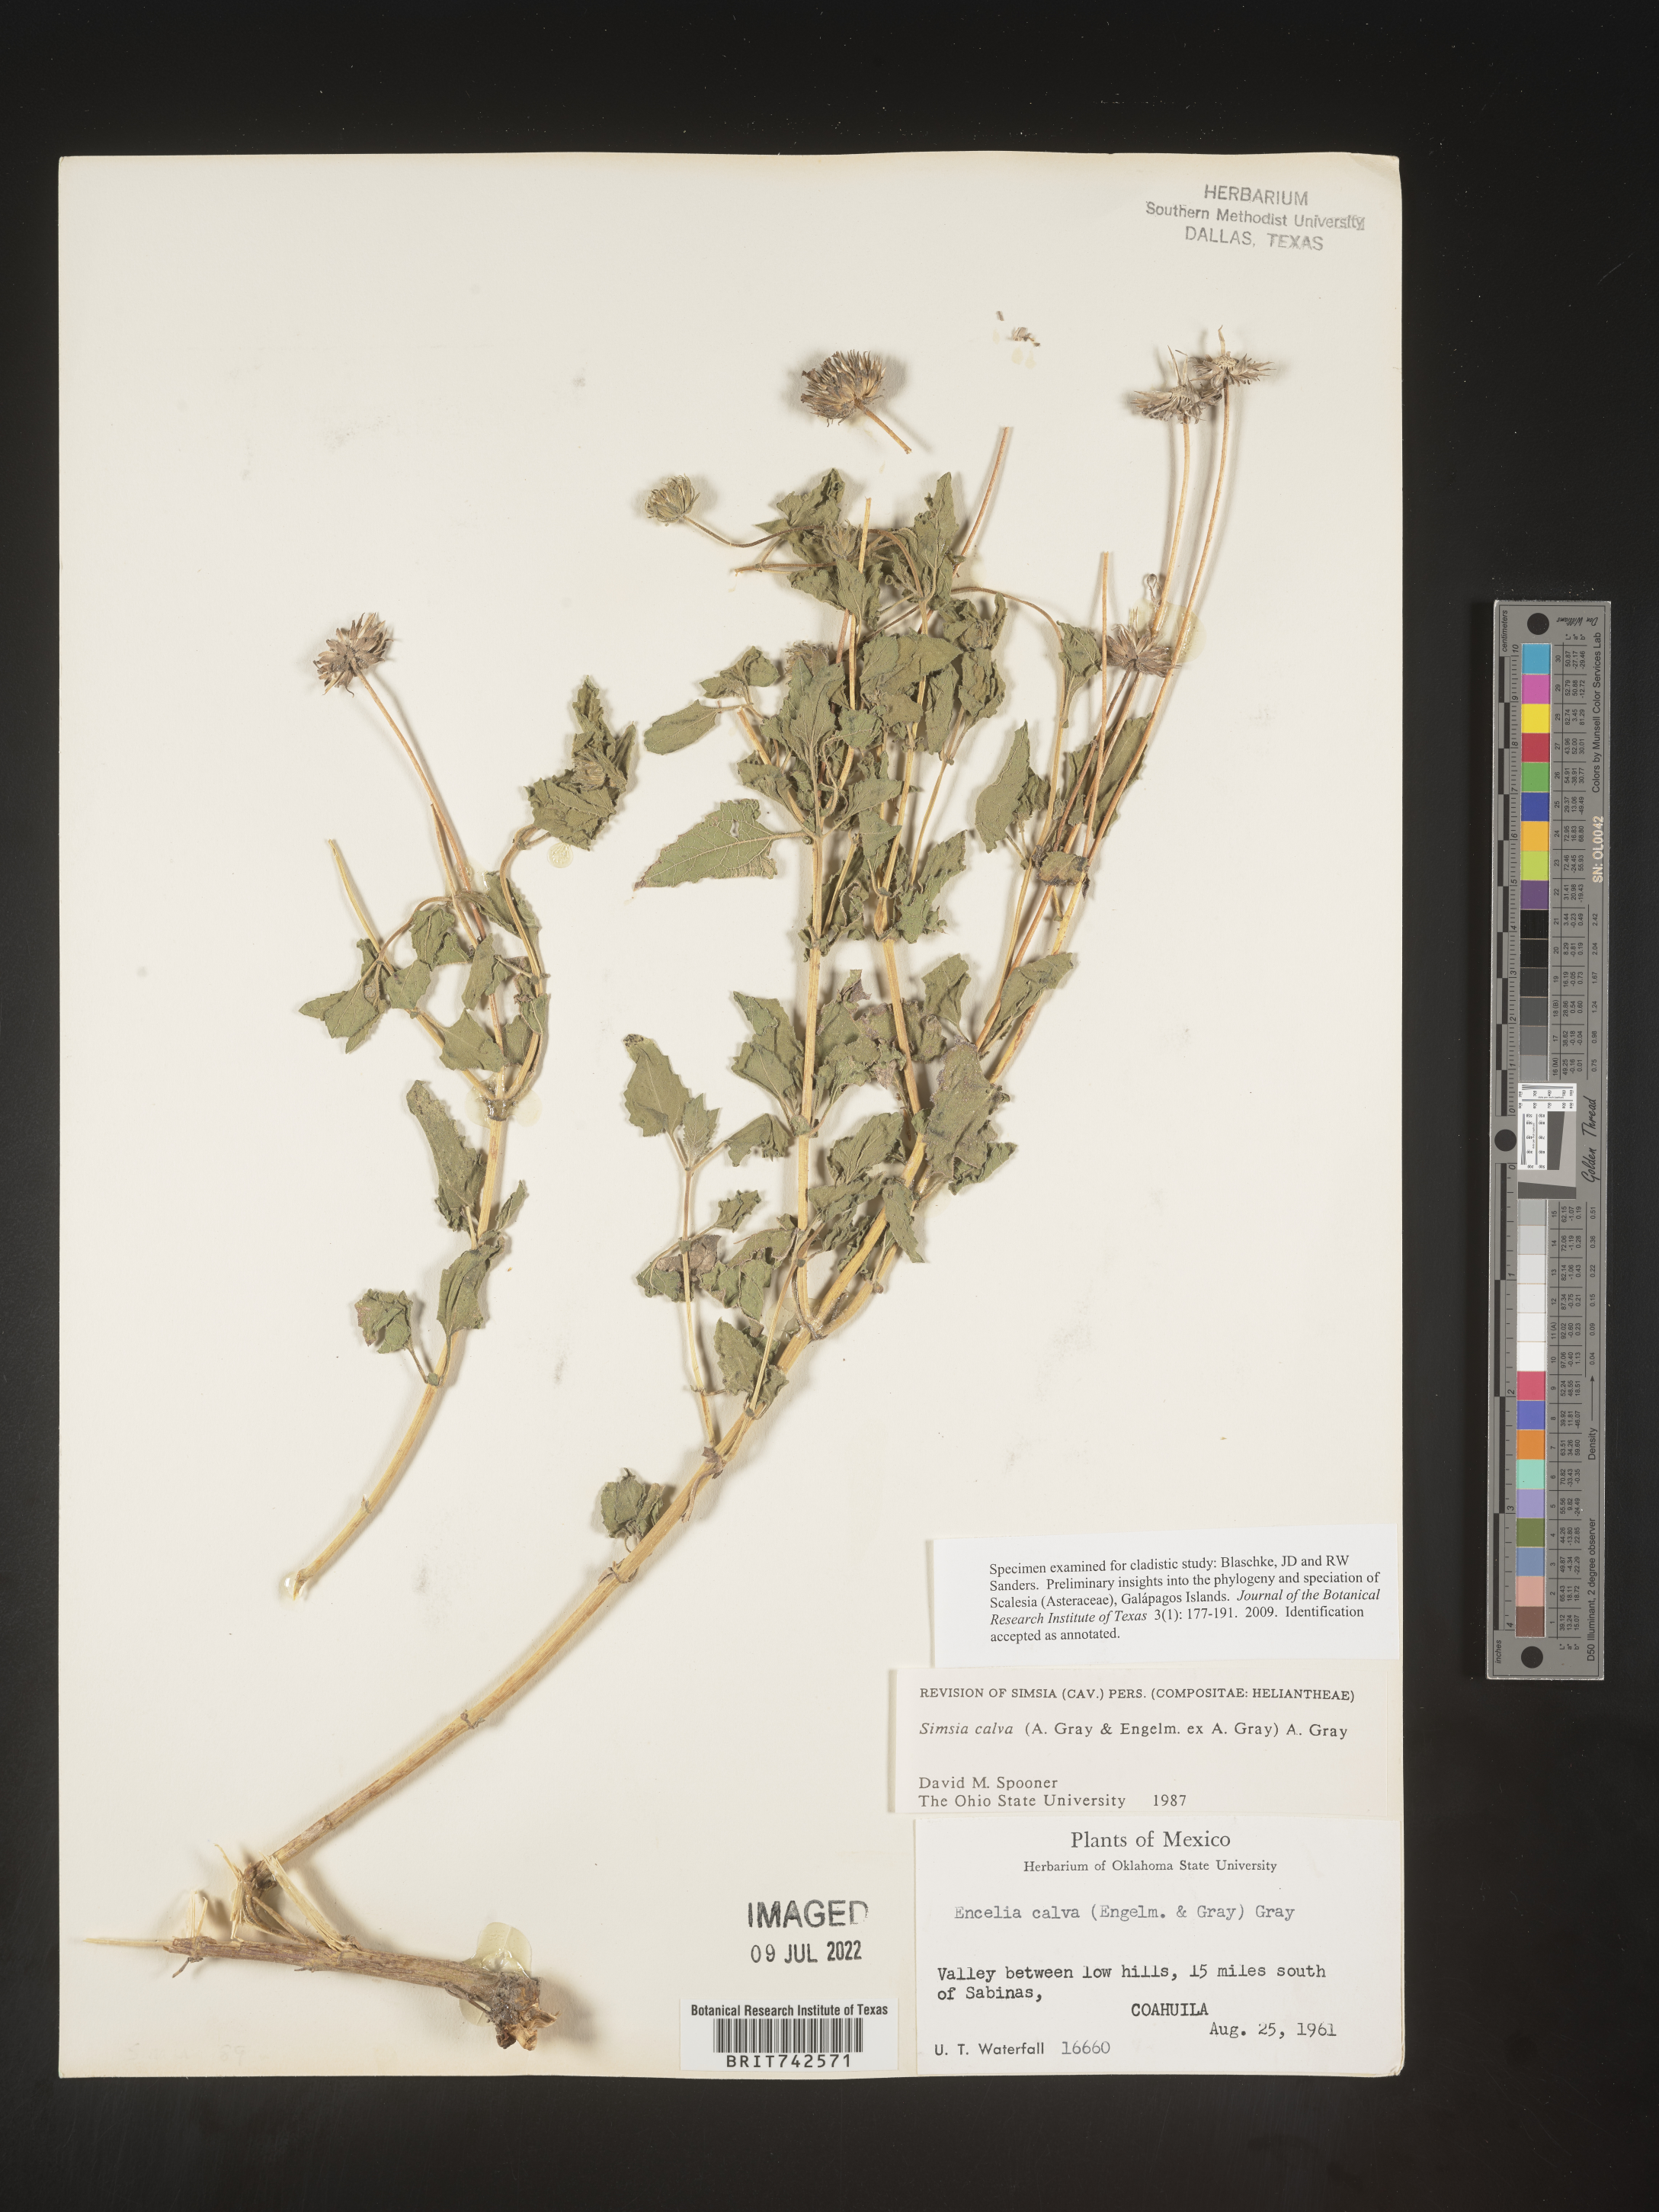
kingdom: Plantae
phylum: Tracheophyta
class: Magnoliopsida
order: Asterales
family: Asteraceae
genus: Simsia
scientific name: Simsia
